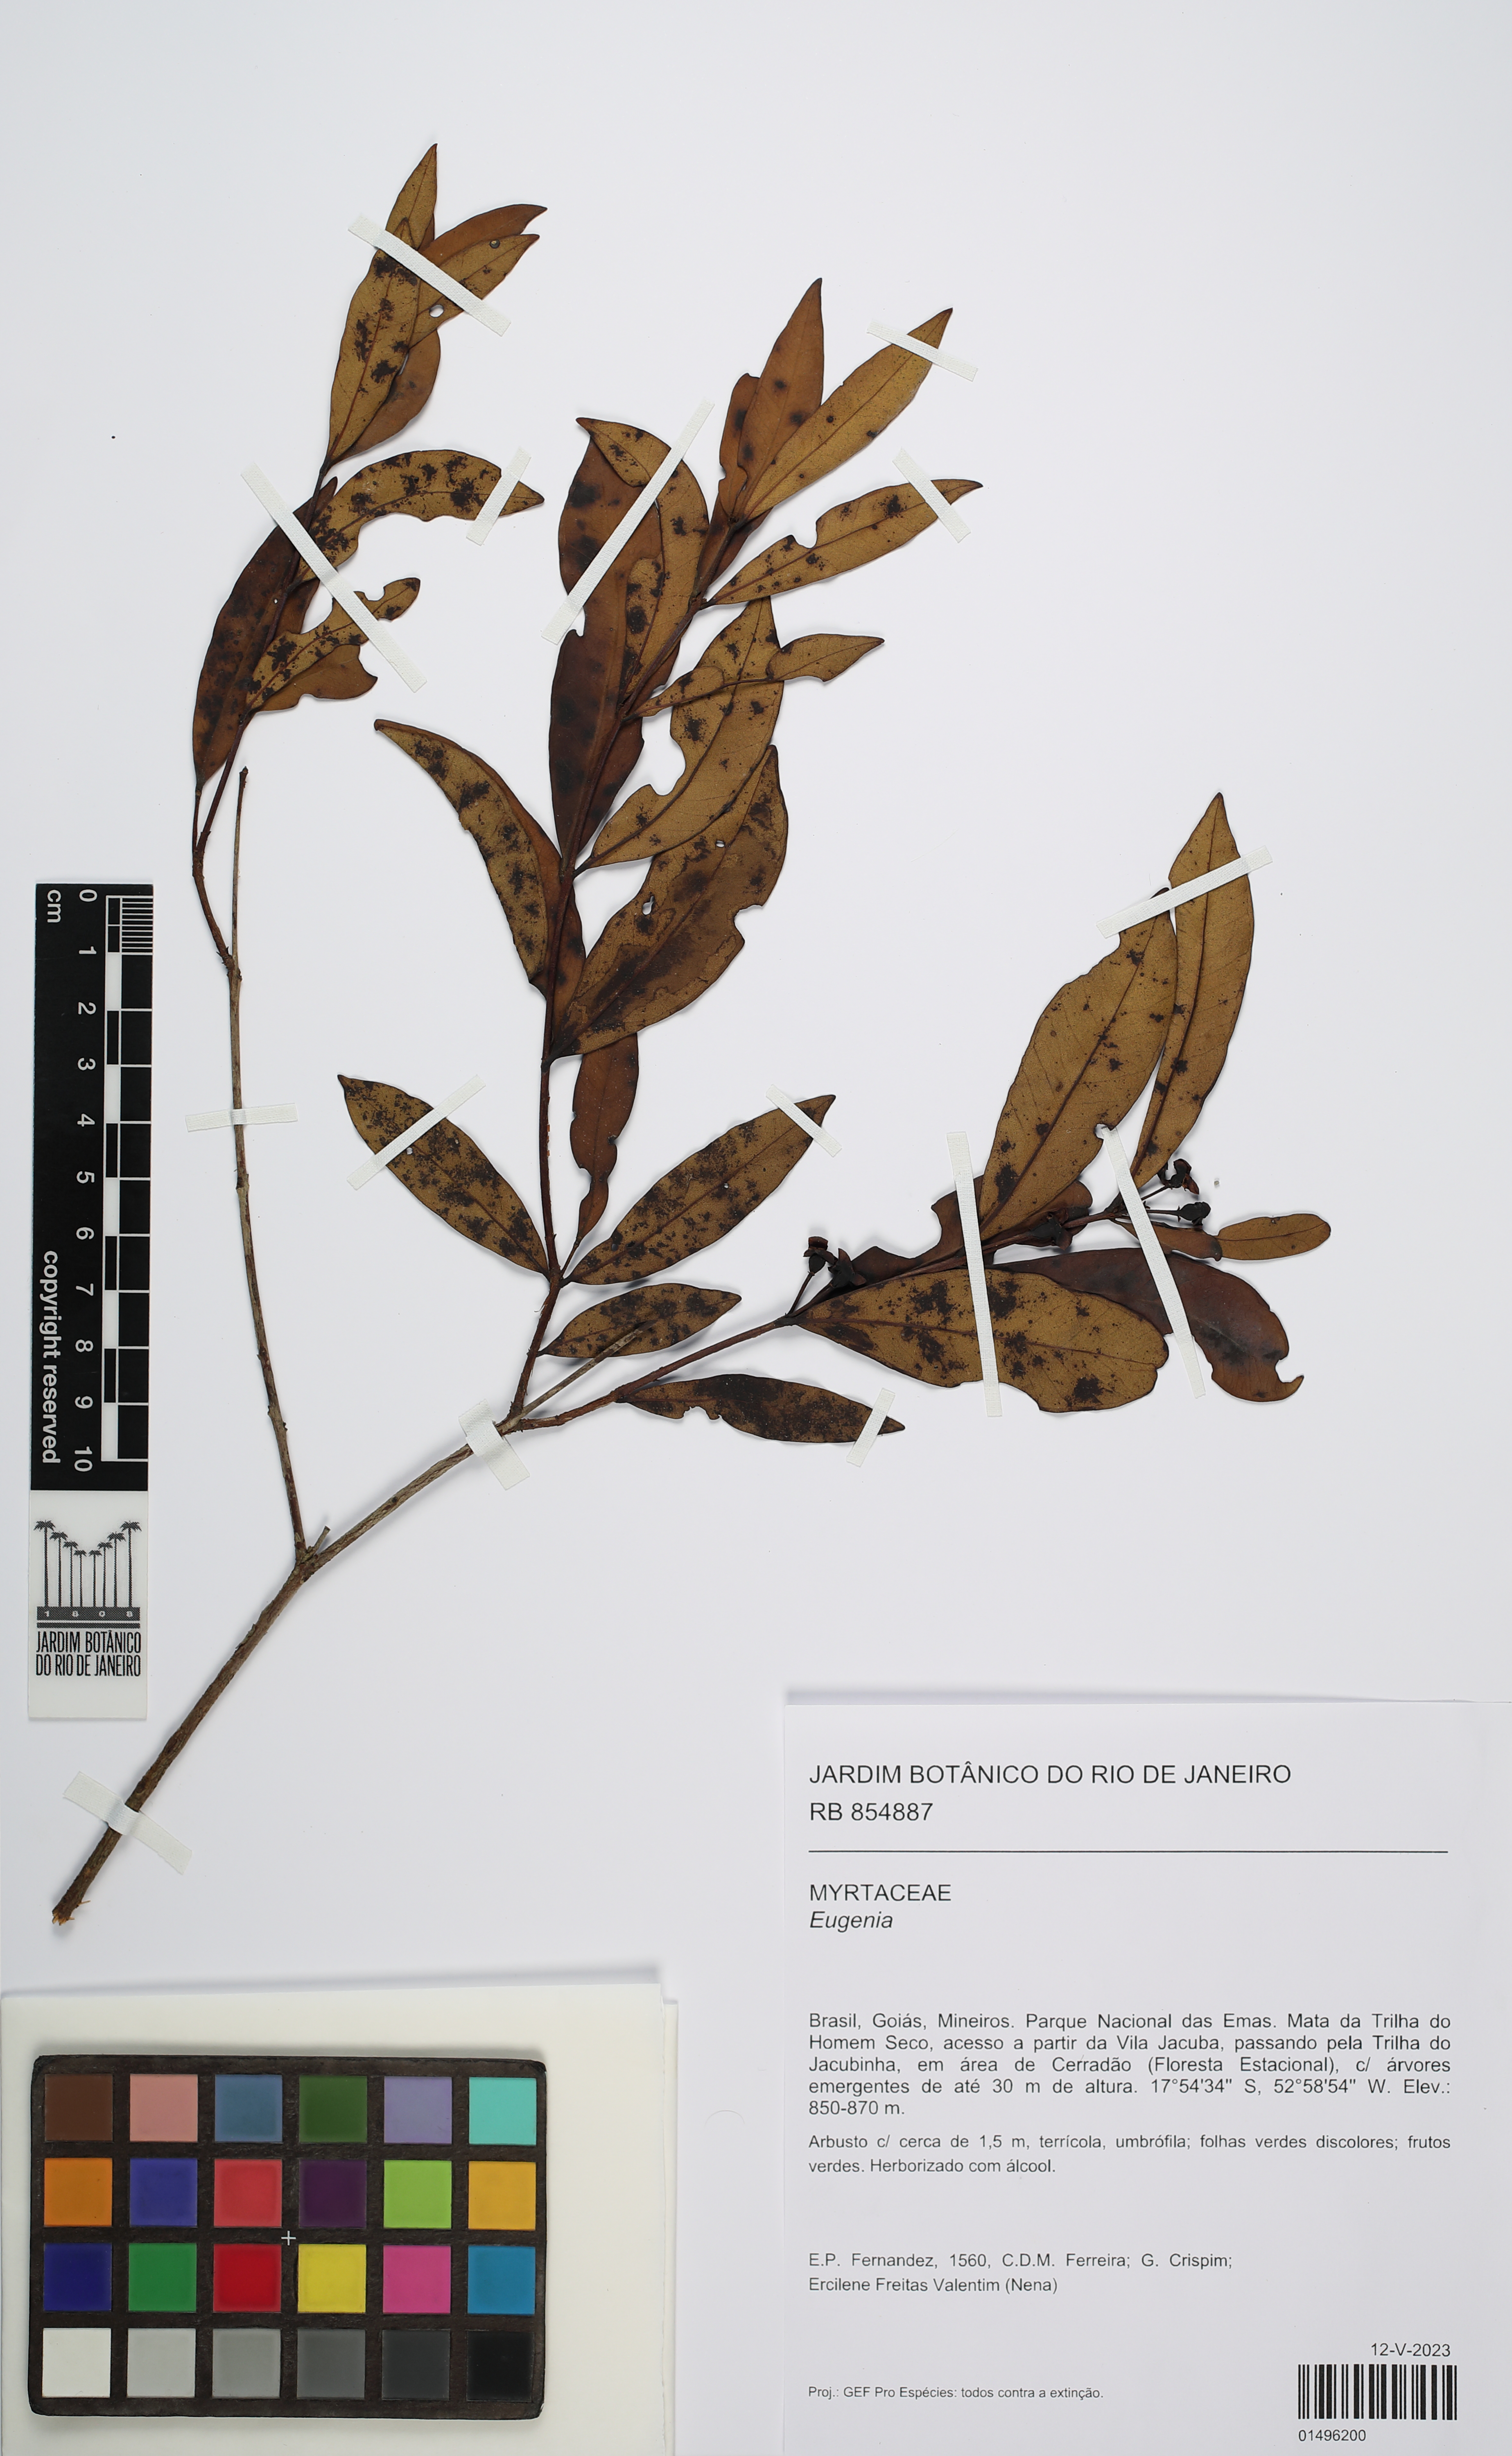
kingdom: Plantae
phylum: Tracheophyta
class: Magnoliopsida
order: Myrtales
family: Myrtaceae
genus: Eugenia
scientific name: Eugenia punicifolia
